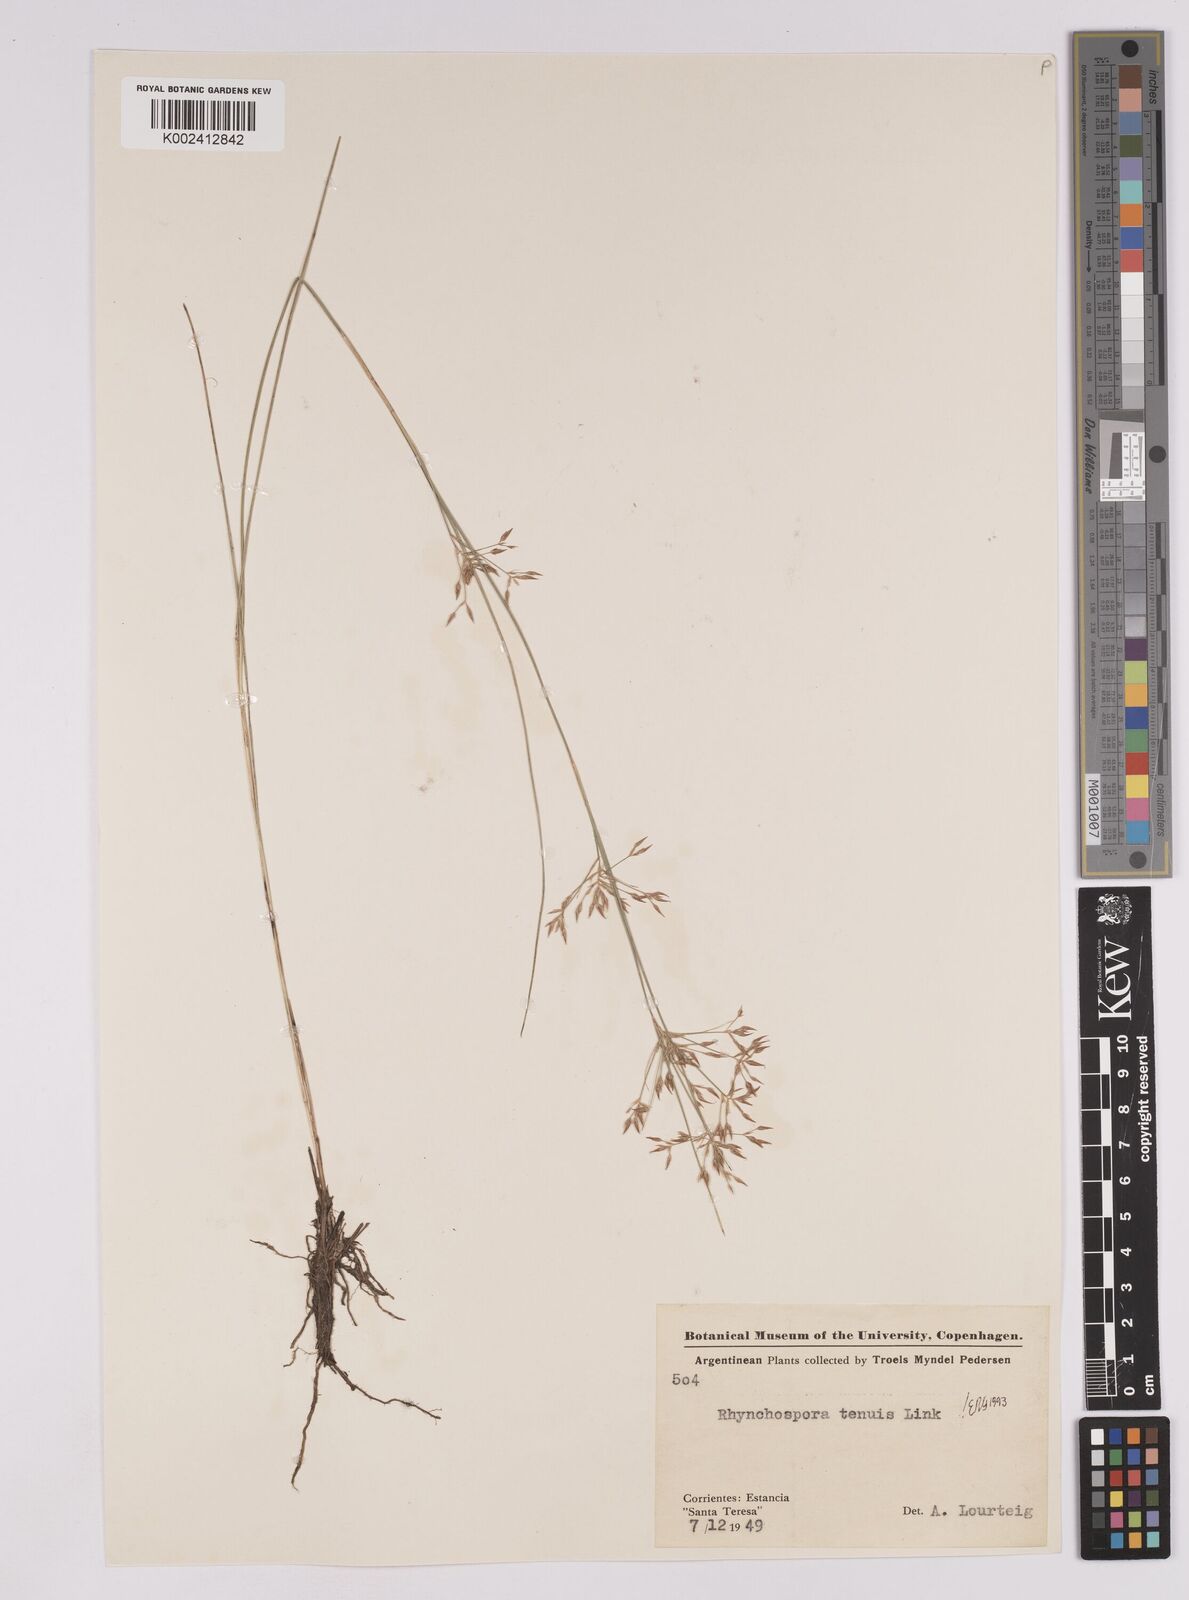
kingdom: Plantae
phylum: Tracheophyta
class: Liliopsida
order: Poales
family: Cyperaceae
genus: Rhynchospora
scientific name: Rhynchospora tenuis
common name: Quill beaksedge
